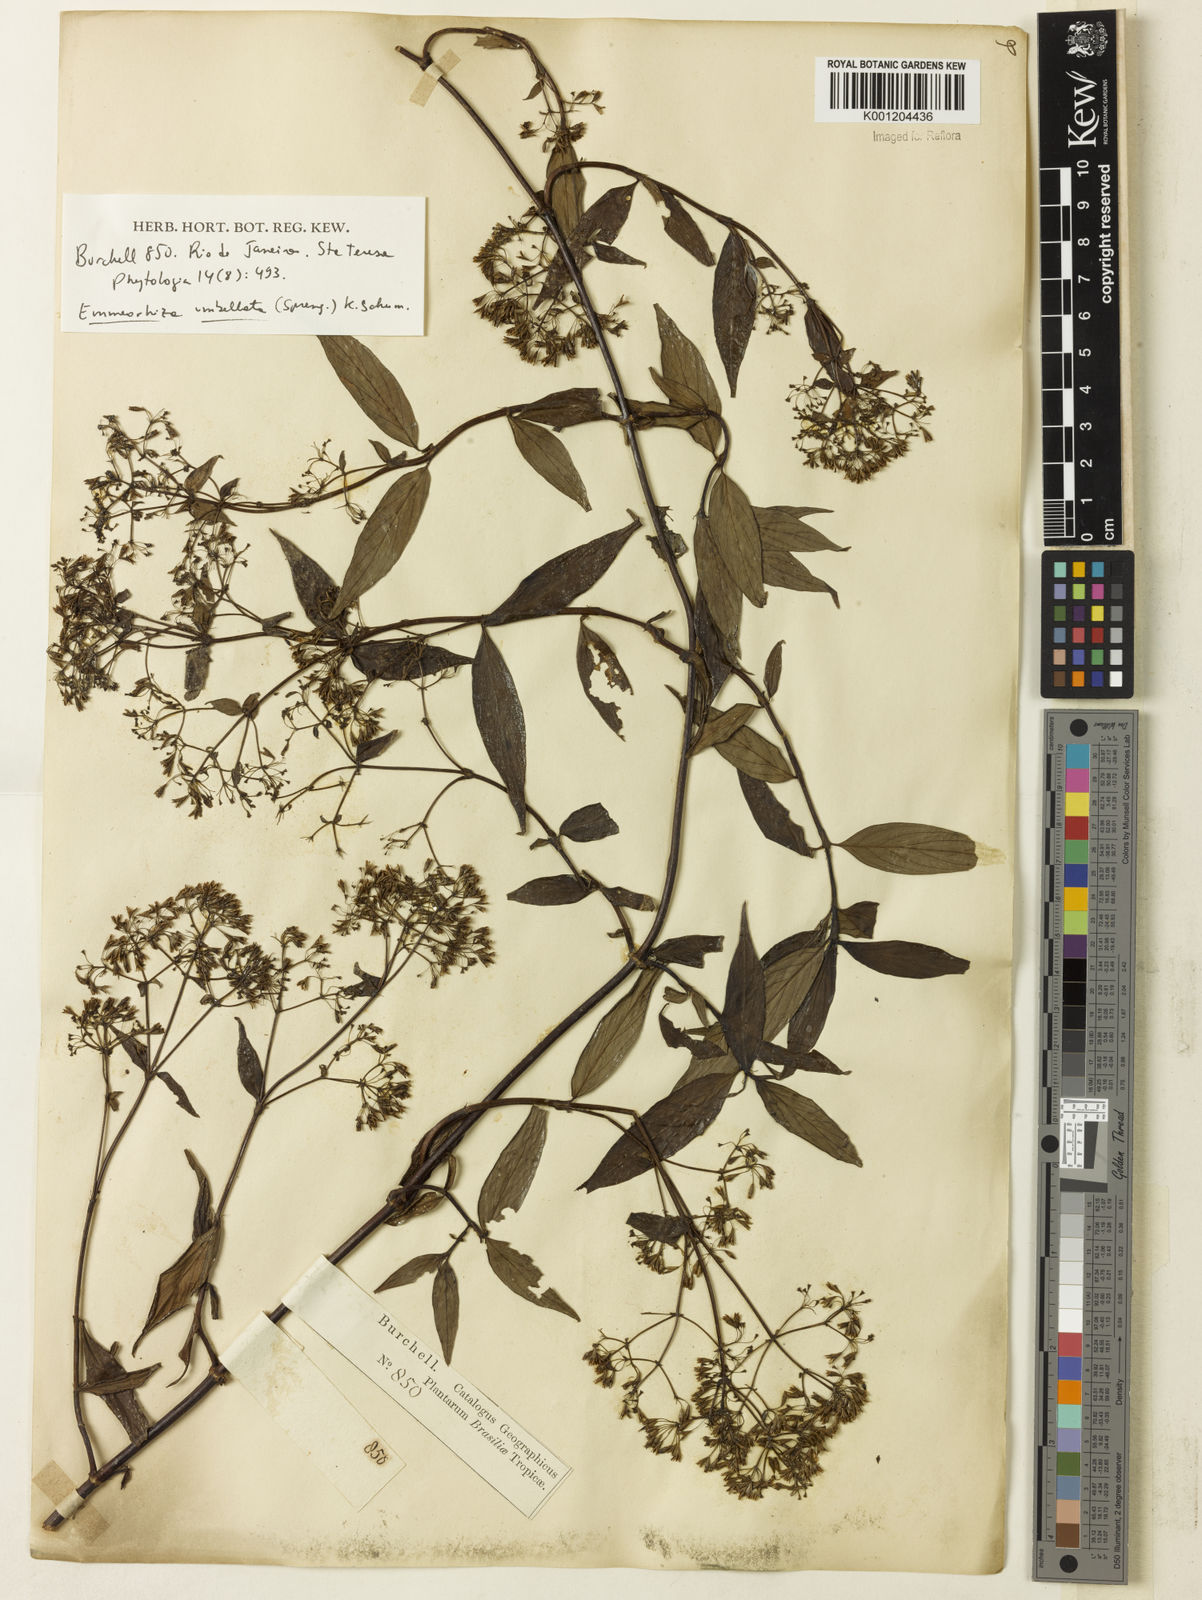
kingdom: Plantae
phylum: Tracheophyta
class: Magnoliopsida
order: Gentianales
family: Rubiaceae
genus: Emmeorhiza
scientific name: Emmeorhiza umbellata
